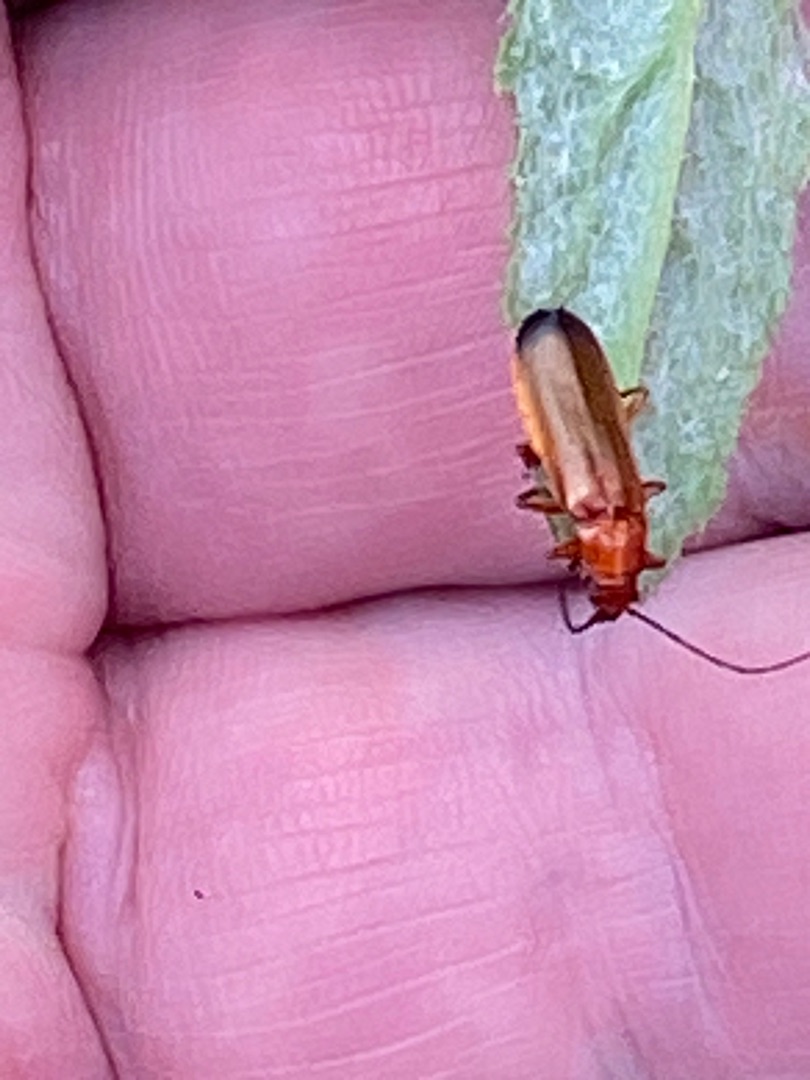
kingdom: Animalia
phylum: Arthropoda
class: Insecta
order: Coleoptera
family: Cantharidae
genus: Rhagonycha
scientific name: Rhagonycha fulva
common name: Præstebille
